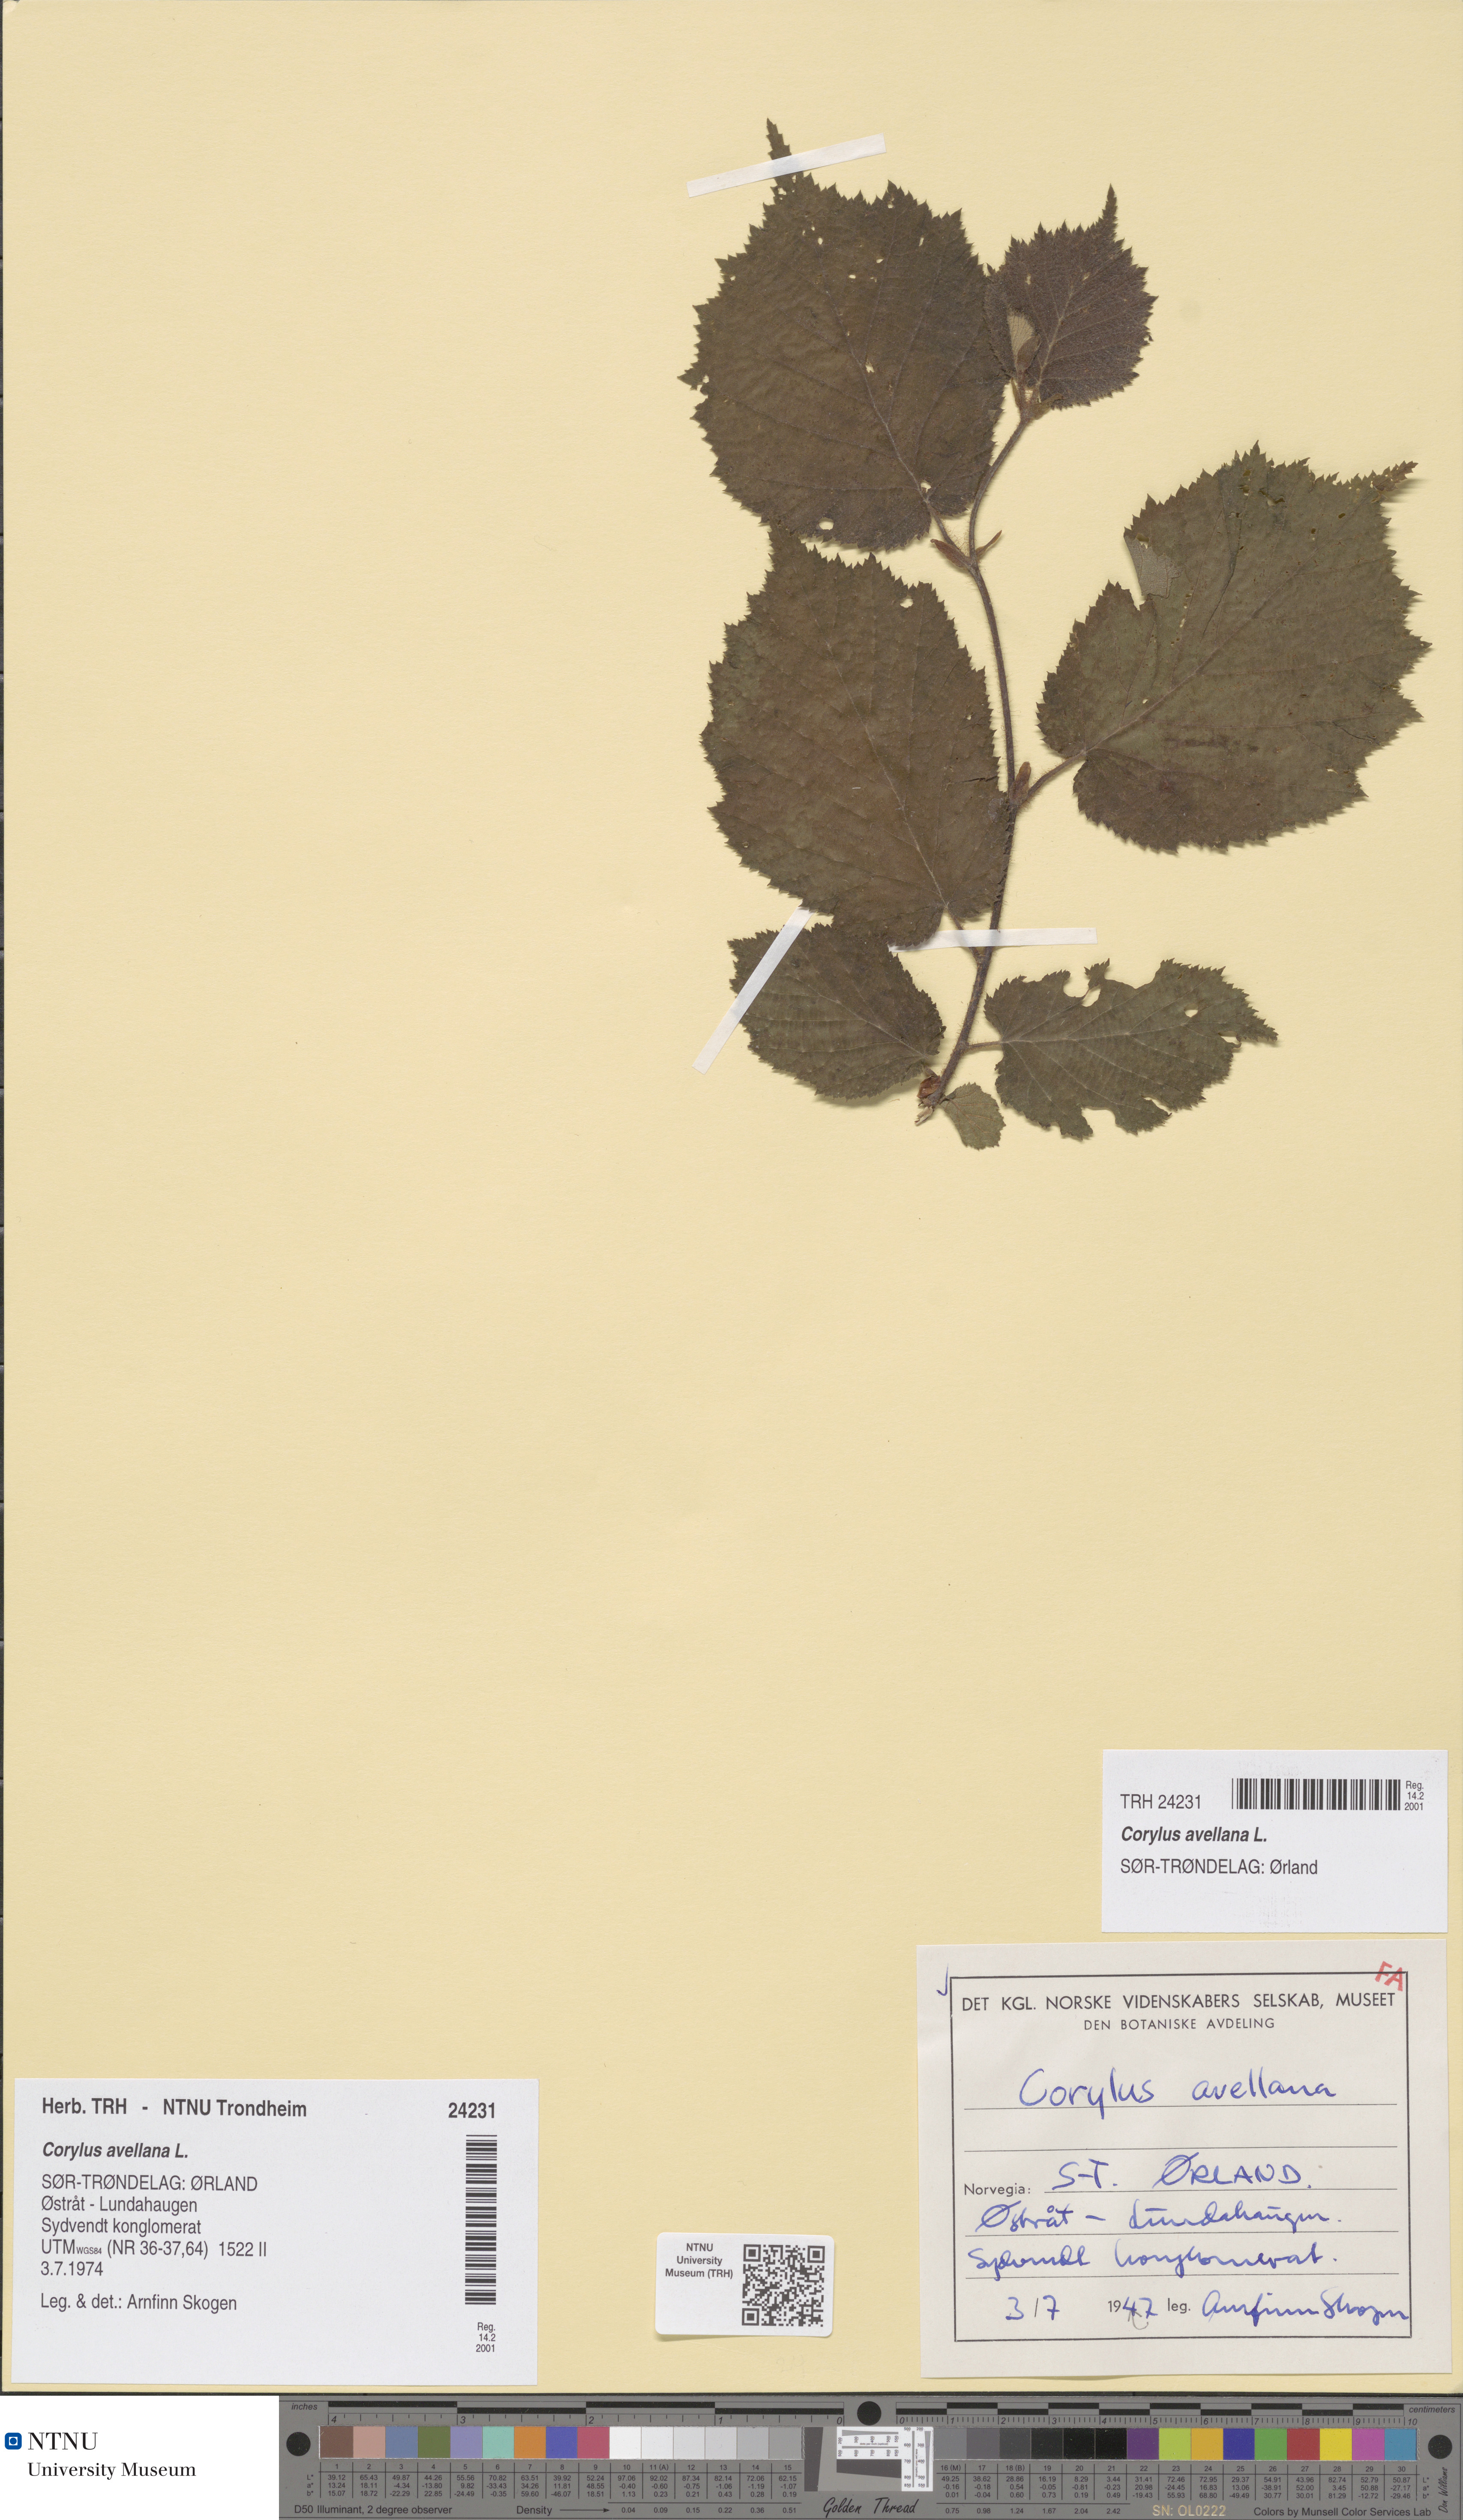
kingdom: Plantae
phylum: Tracheophyta
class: Magnoliopsida
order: Fagales
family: Betulaceae
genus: Corylus
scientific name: Corylus avellana
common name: European hazel
